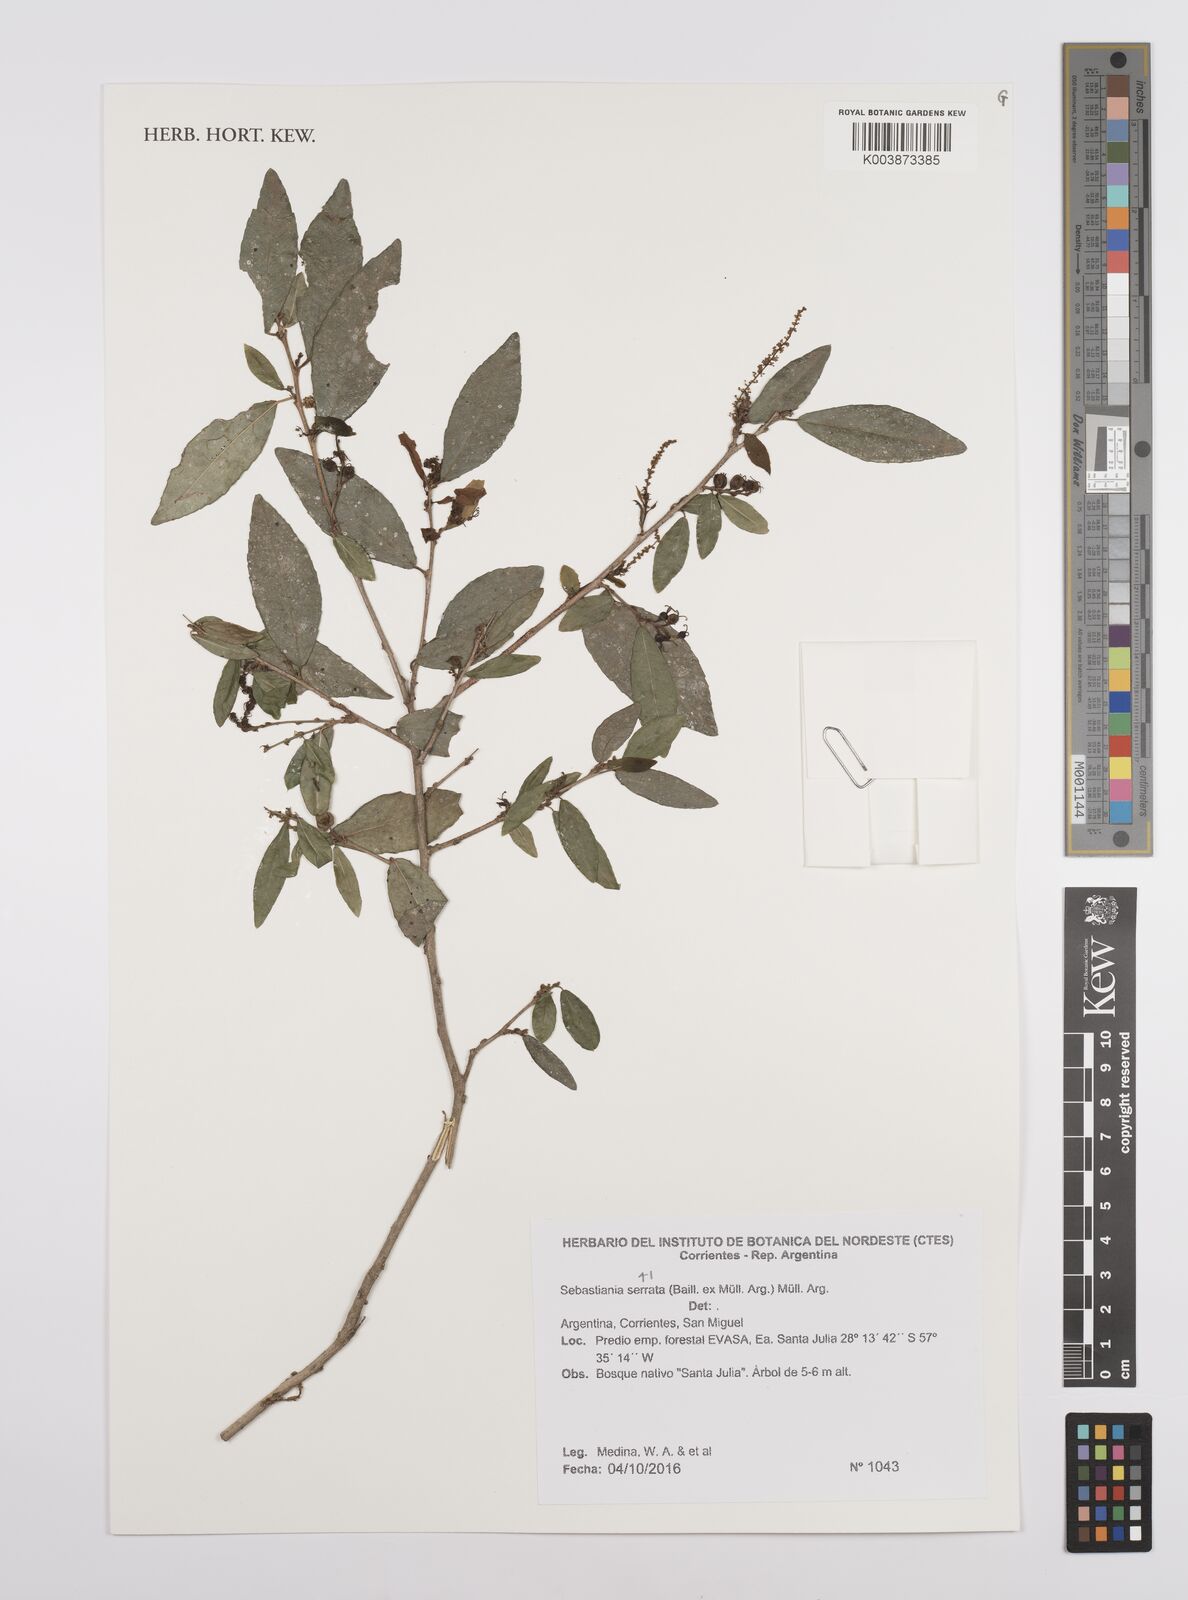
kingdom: Plantae
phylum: Tracheophyta
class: Magnoliopsida
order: Malpighiales
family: Euphorbiaceae
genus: Sebastiania
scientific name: Sebastiania serrata
